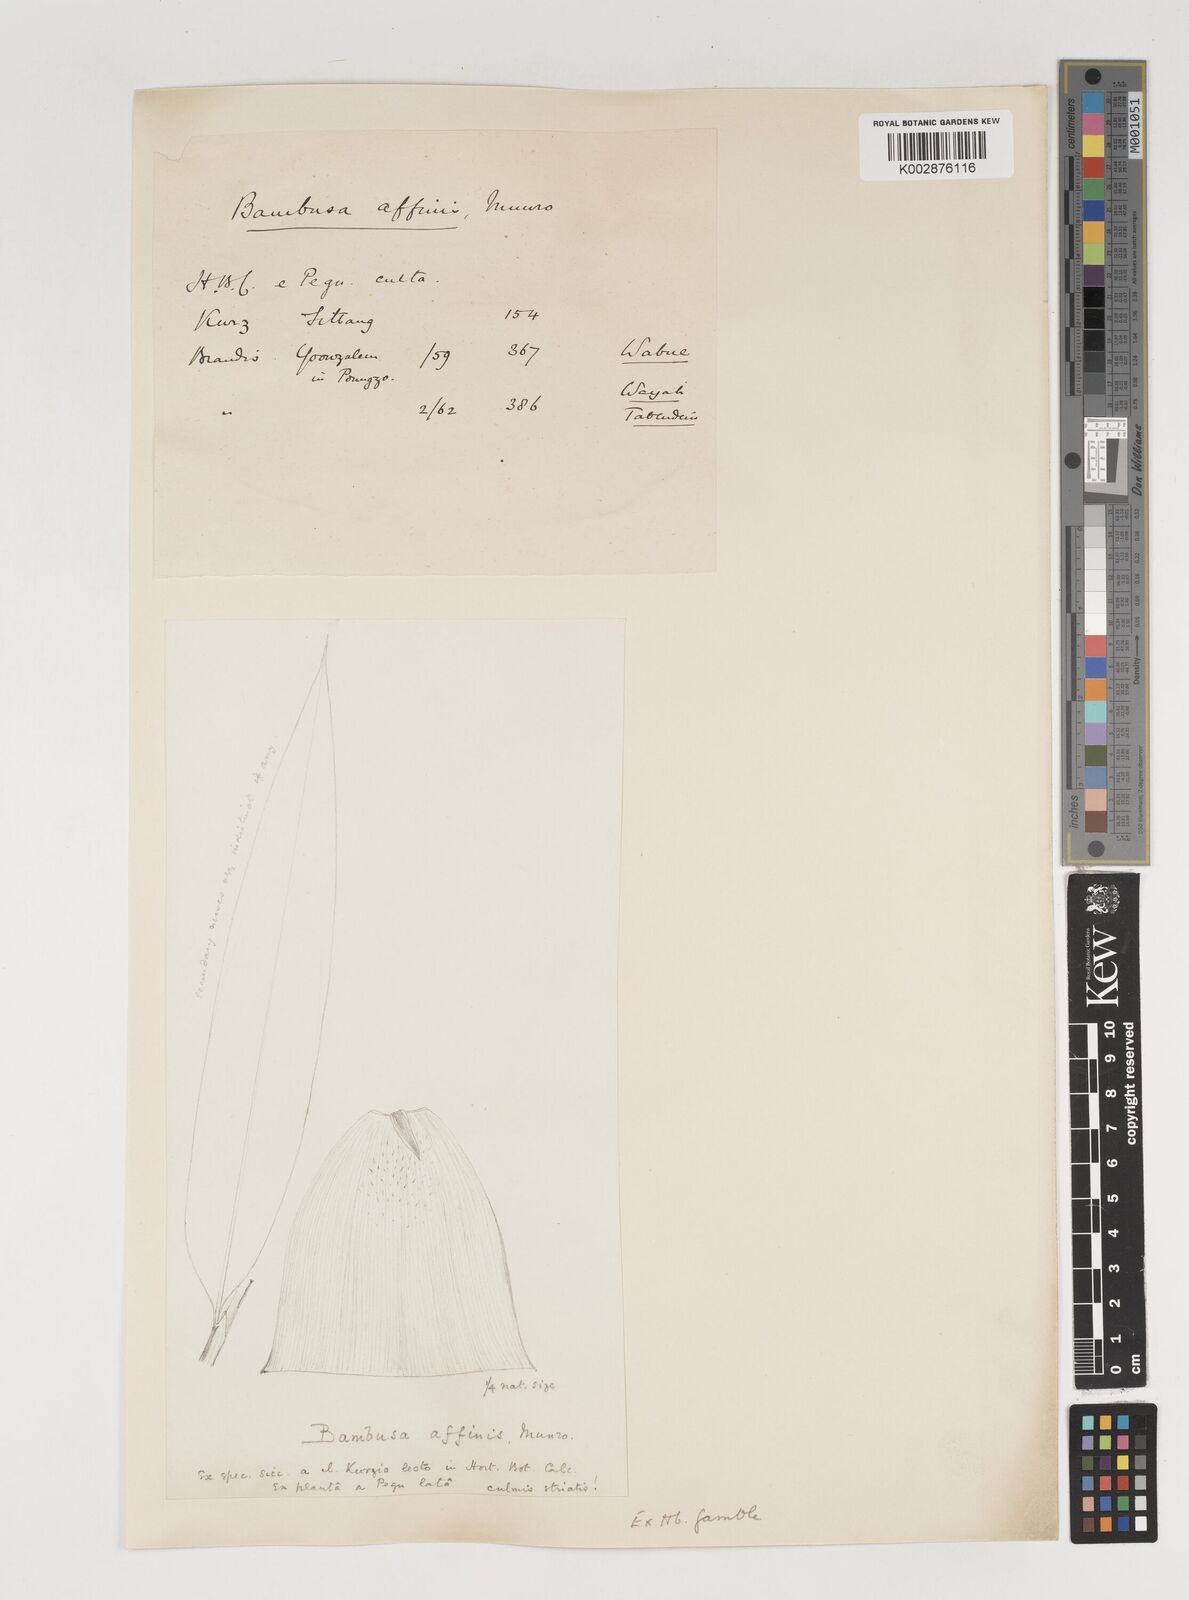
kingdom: Plantae
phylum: Tracheophyta
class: Liliopsida
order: Poales
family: Poaceae
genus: Bambusa
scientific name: Bambusa affinis
